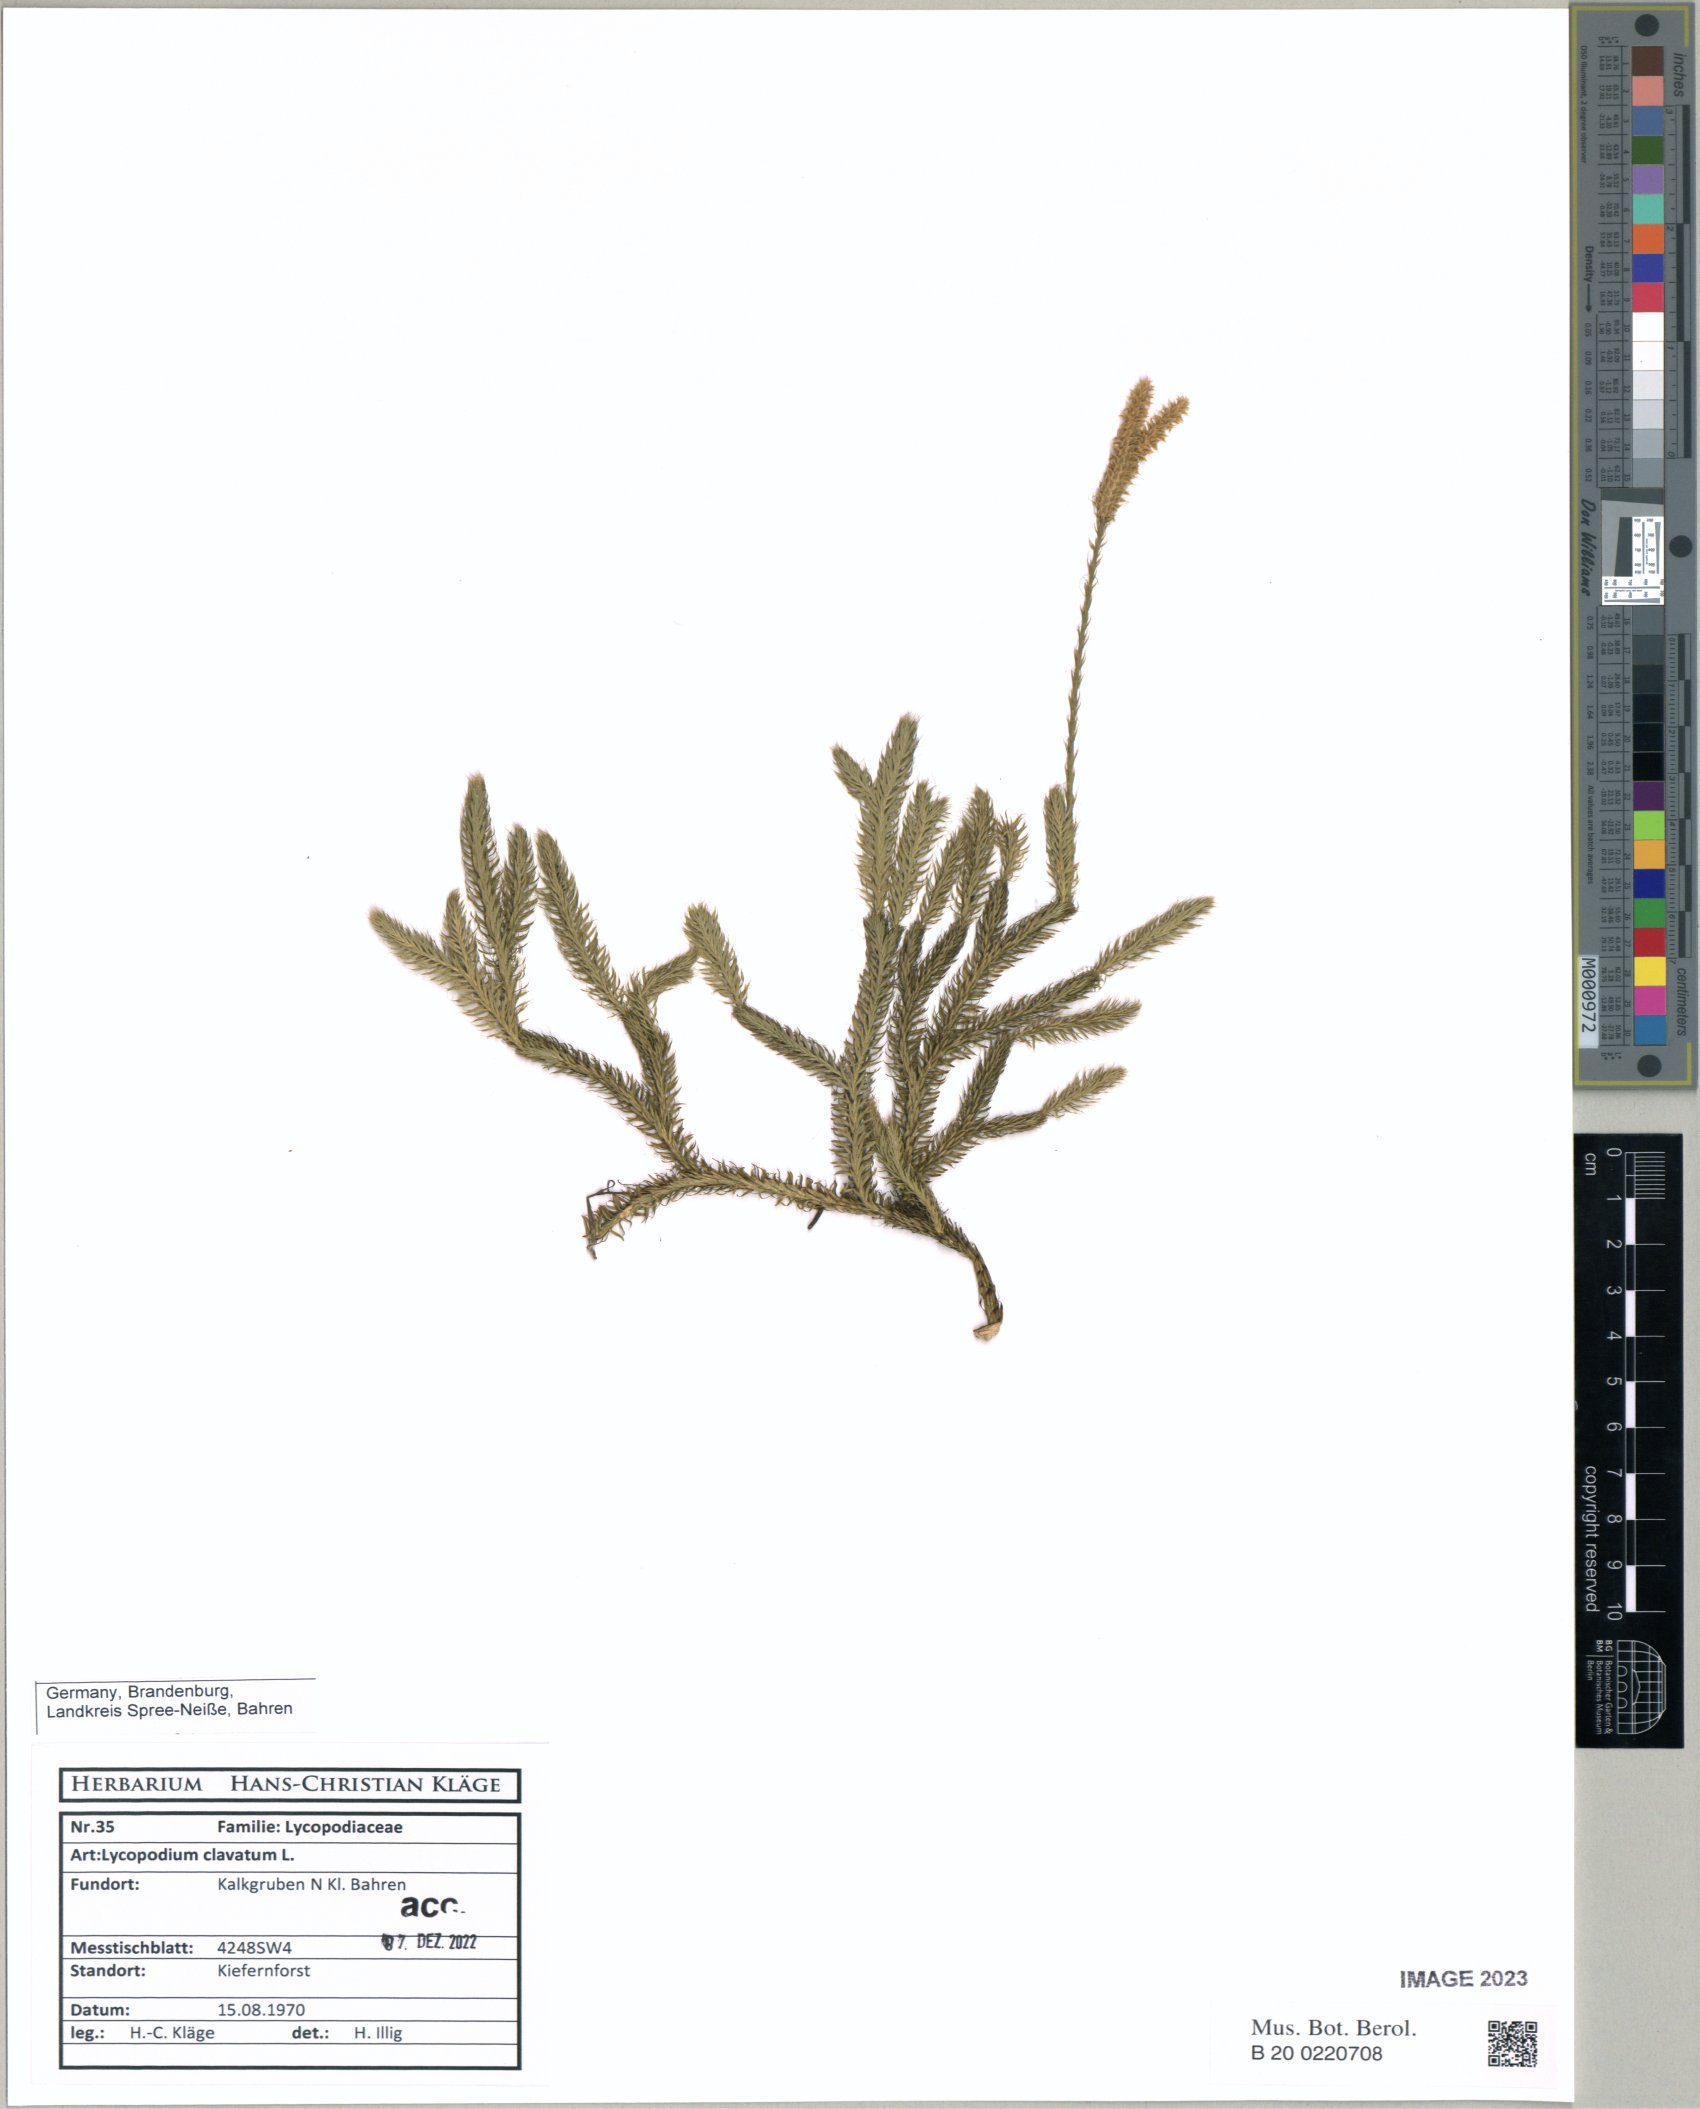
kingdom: Plantae
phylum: Tracheophyta
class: Lycopodiopsida
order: Lycopodiales
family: Lycopodiaceae
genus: Lycopodium
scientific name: Lycopodium clavatum
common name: Stag's-horn clubmoss
